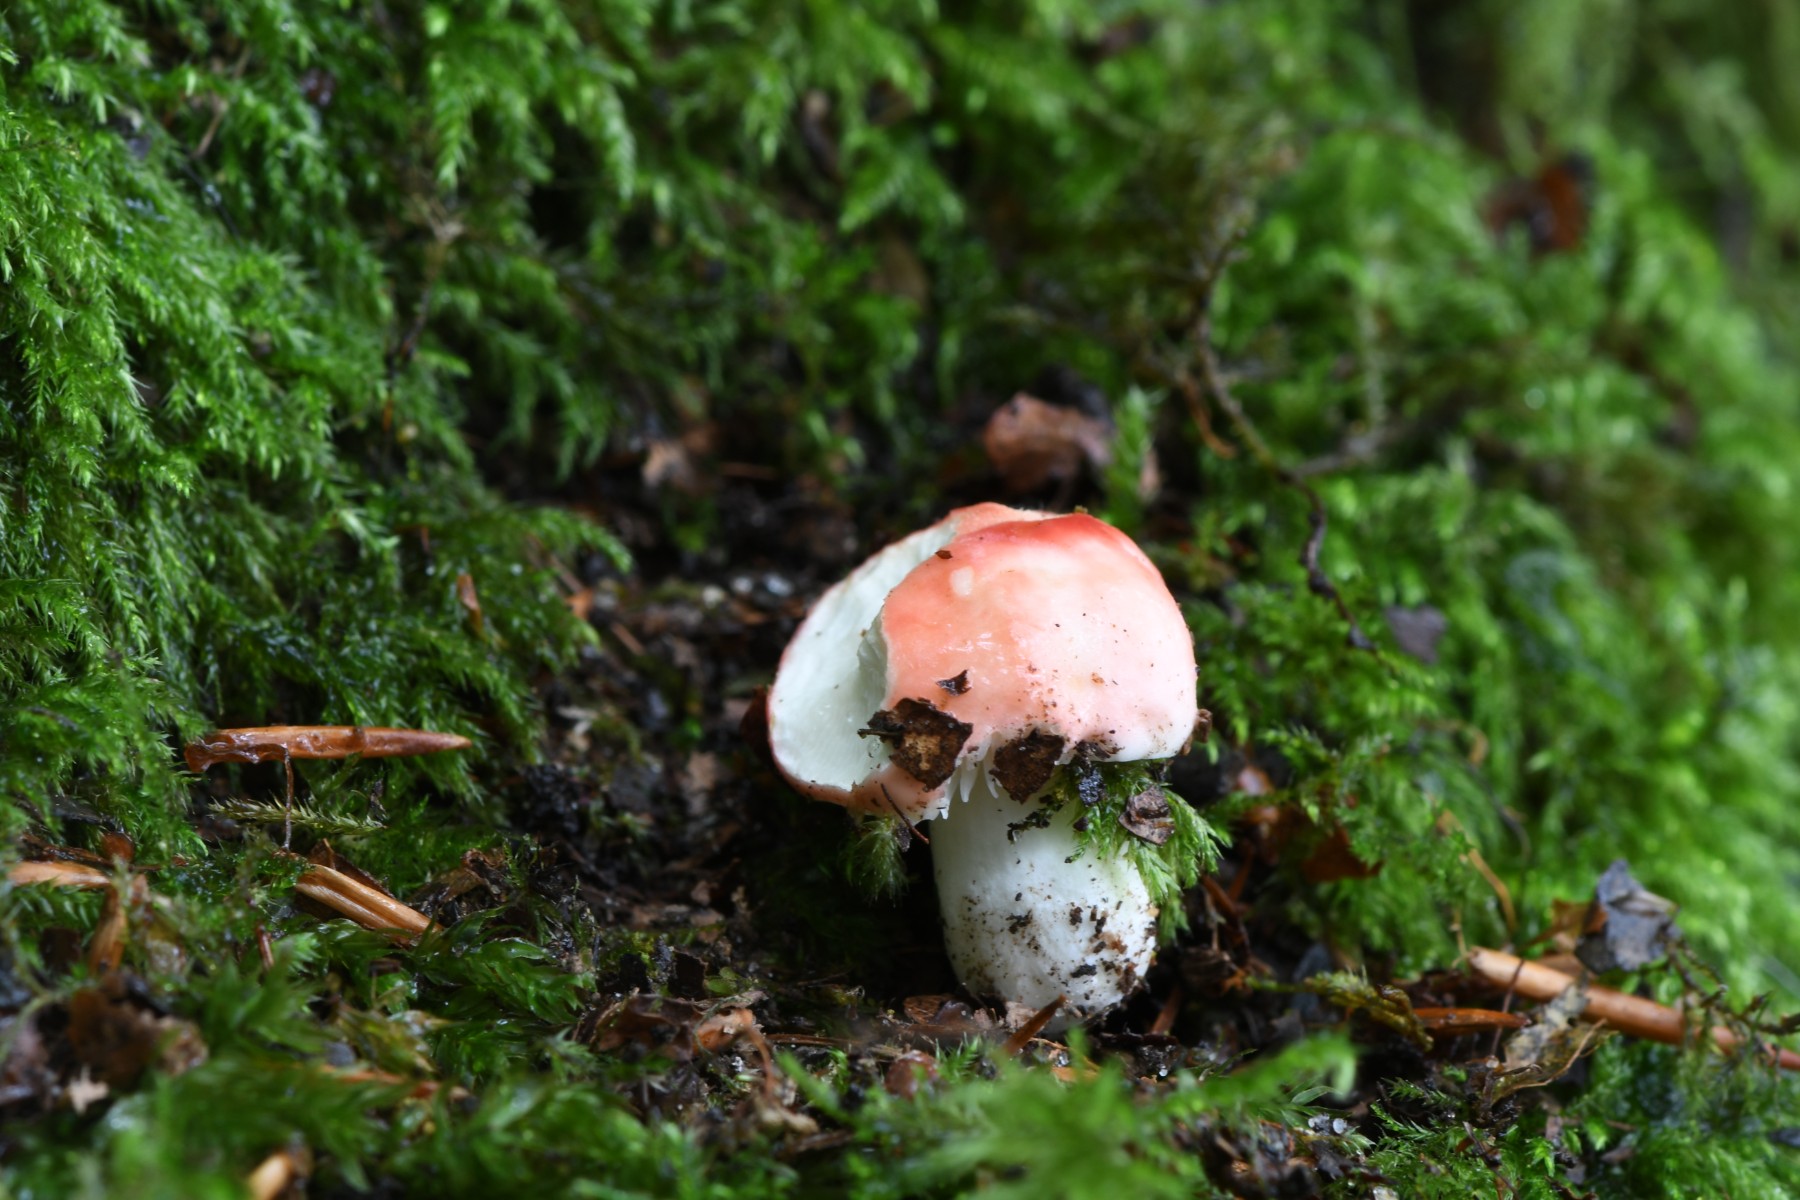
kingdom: Fungi
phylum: Basidiomycota
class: Agaricomycetes
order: Russulales
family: Russulaceae
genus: Russula
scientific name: Russula nobilis
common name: lille gift-skørhat
